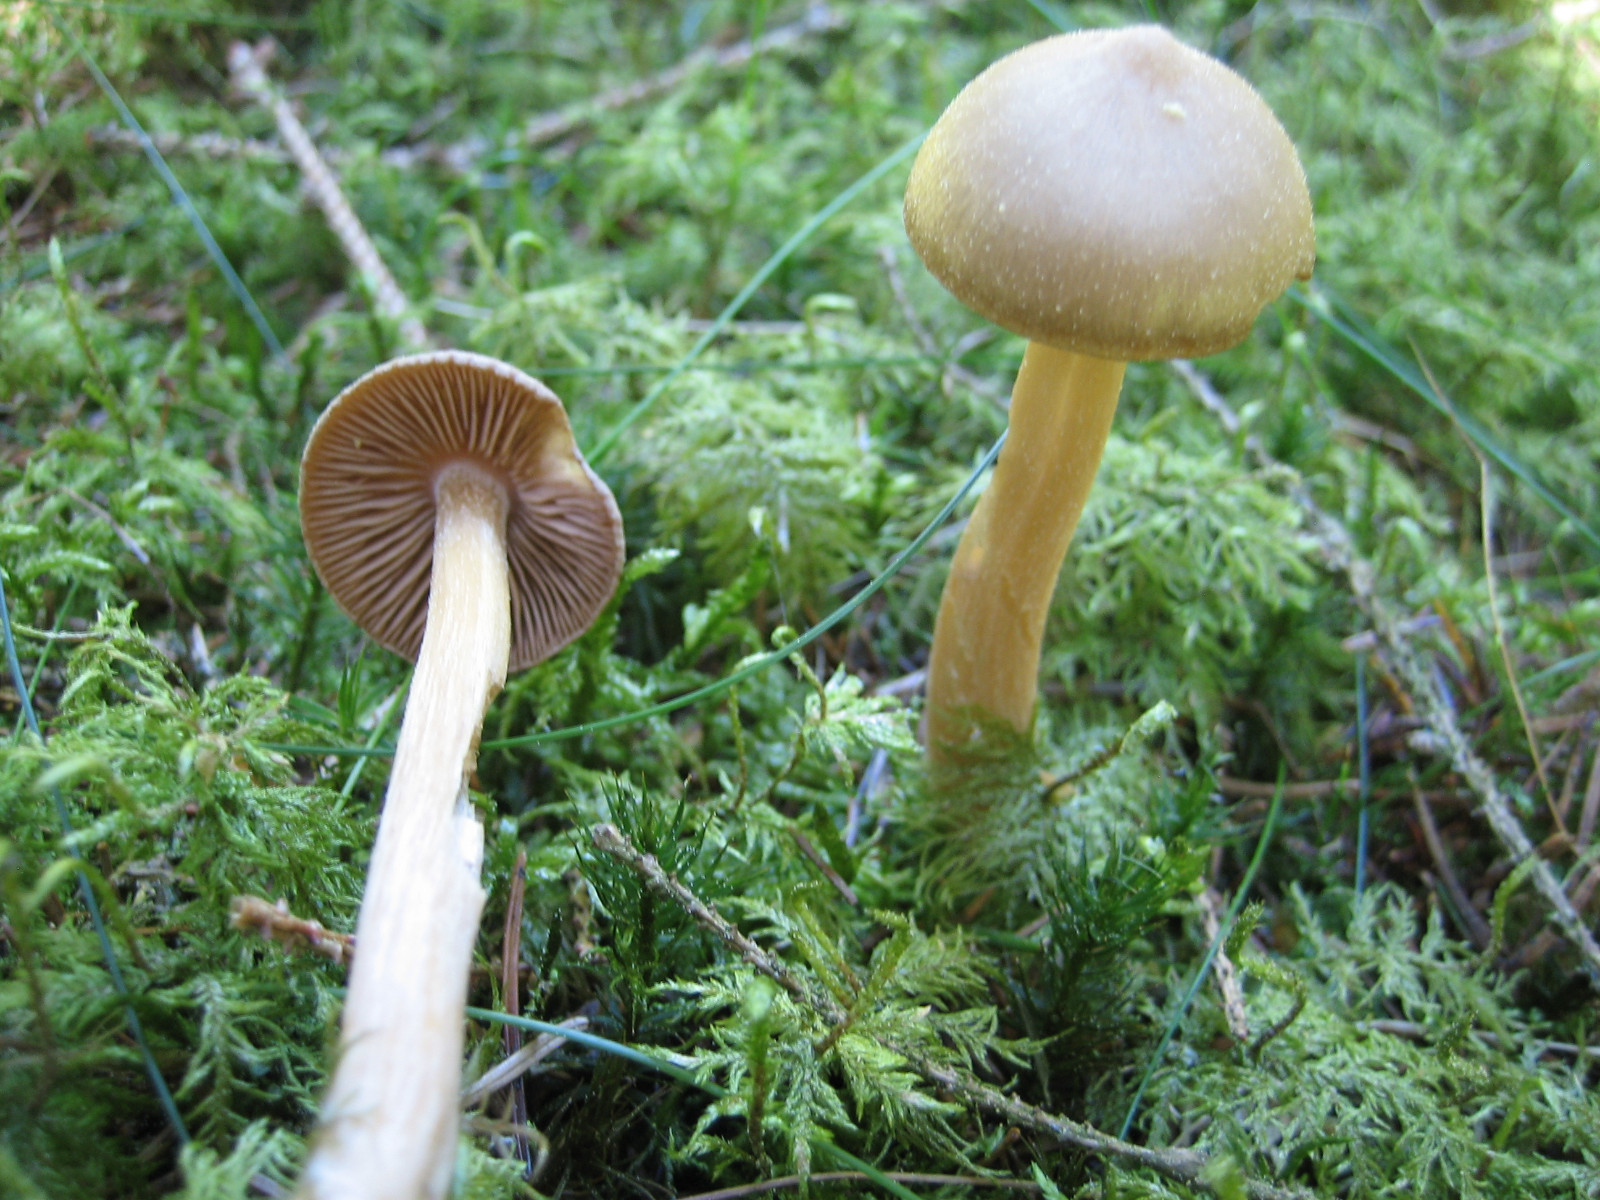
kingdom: Fungi
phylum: Basidiomycota
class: Agaricomycetes
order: Agaricales
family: Entolomataceae
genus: Entoloma
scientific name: Entoloma cuneatum
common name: dunstokket rødblad
